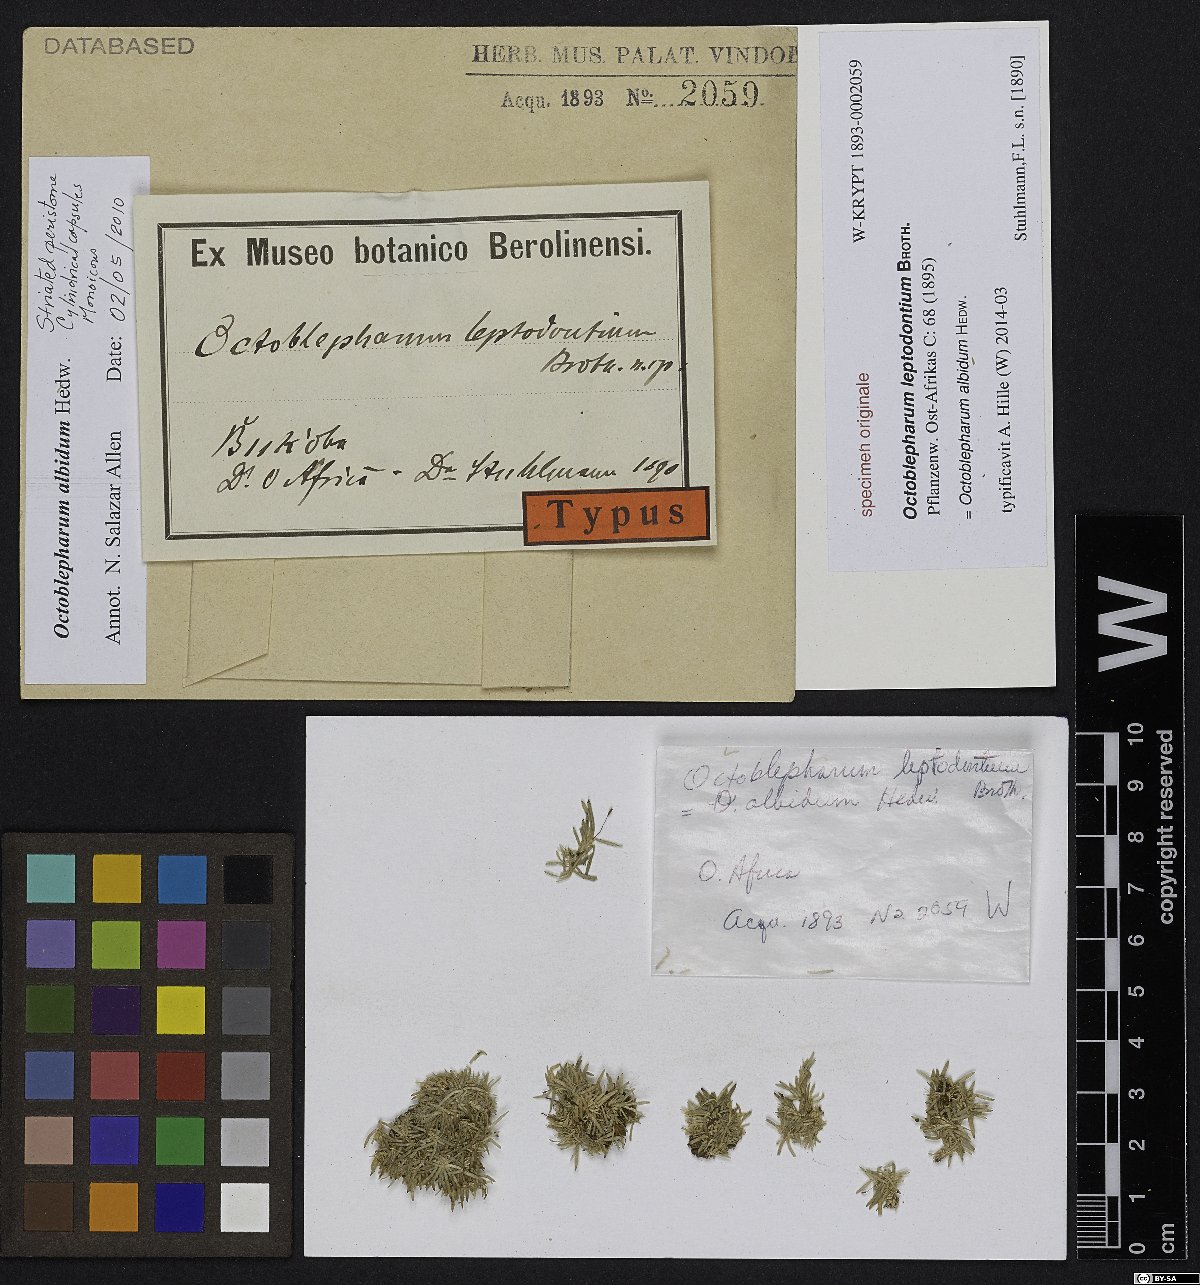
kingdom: Plantae
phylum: Bryophyta
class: Bryopsida
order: Dicranales
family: Calymperaceae
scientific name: Calymperaceae
